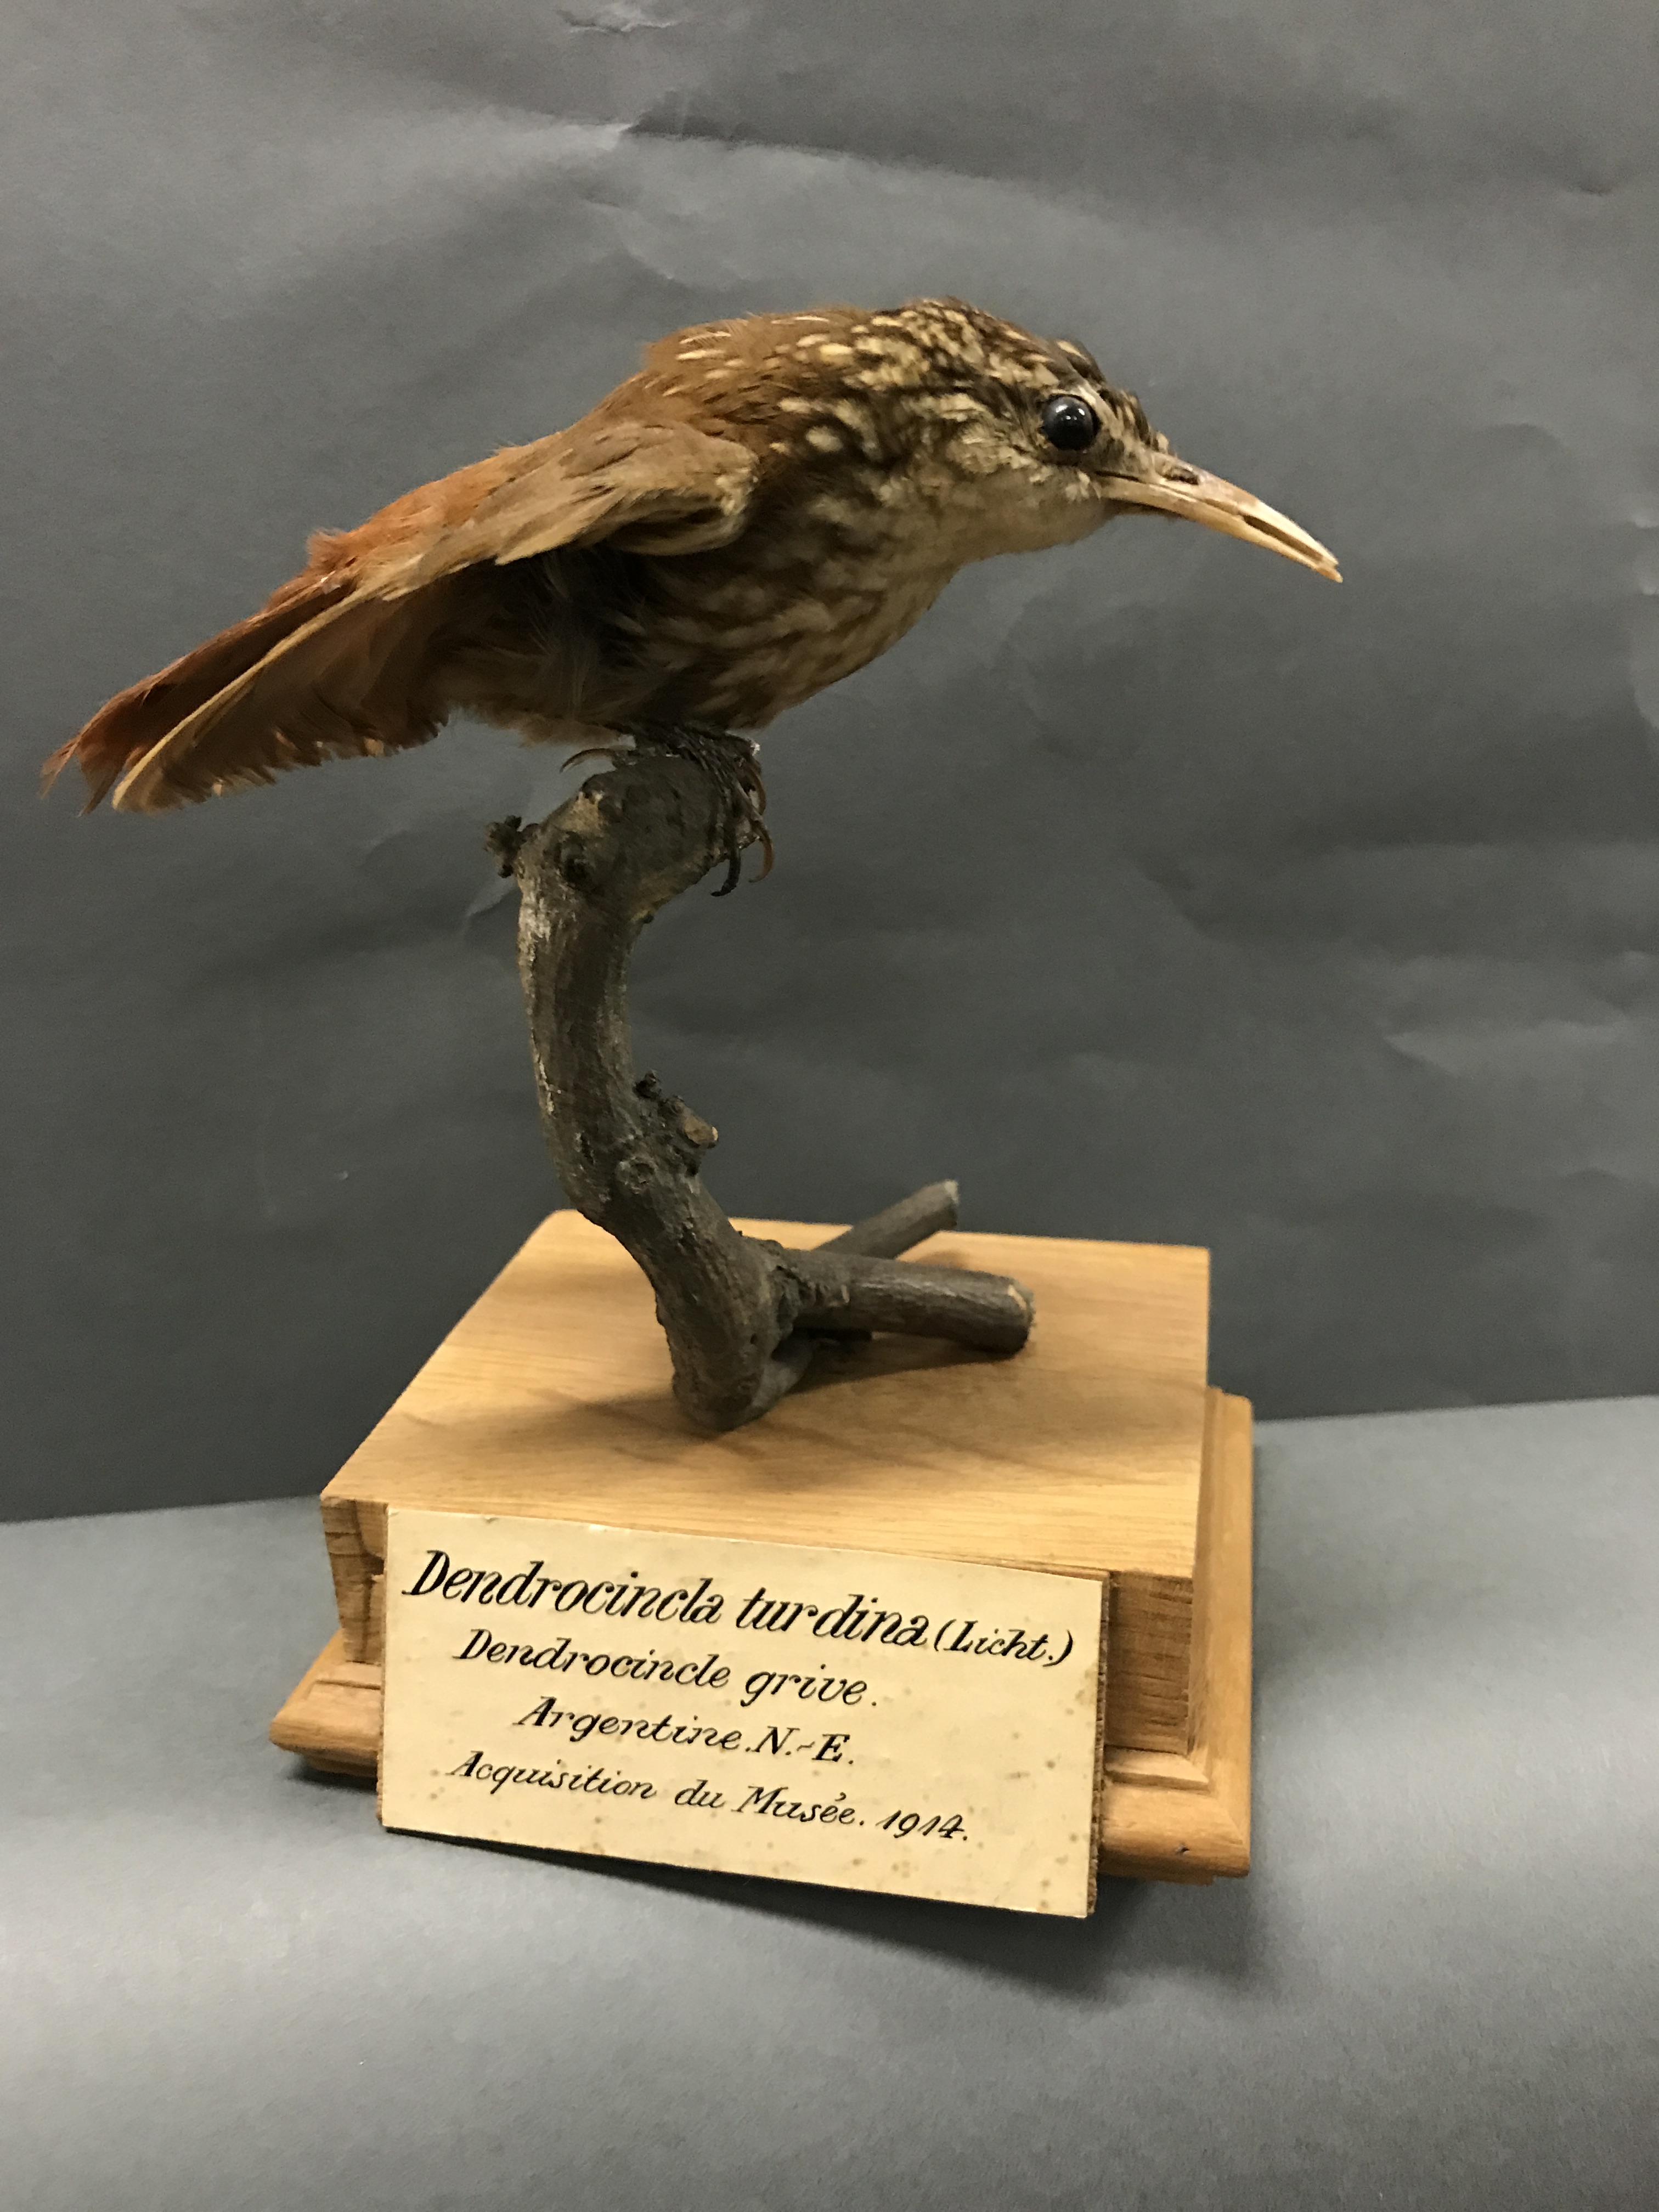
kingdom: Animalia
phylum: Chordata
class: Aves
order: Passeriformes
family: Furnariidae
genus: Cichlocolaptes
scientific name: Cichlocolaptes leucophrus
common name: Pale-browed treehunter
